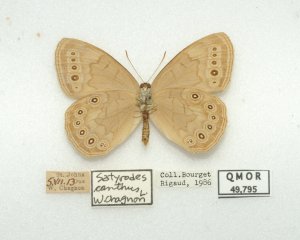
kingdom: Animalia
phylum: Arthropoda
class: Insecta
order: Lepidoptera
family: Nymphalidae
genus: Lethe
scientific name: Lethe eurydice
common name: Eyed Brown
